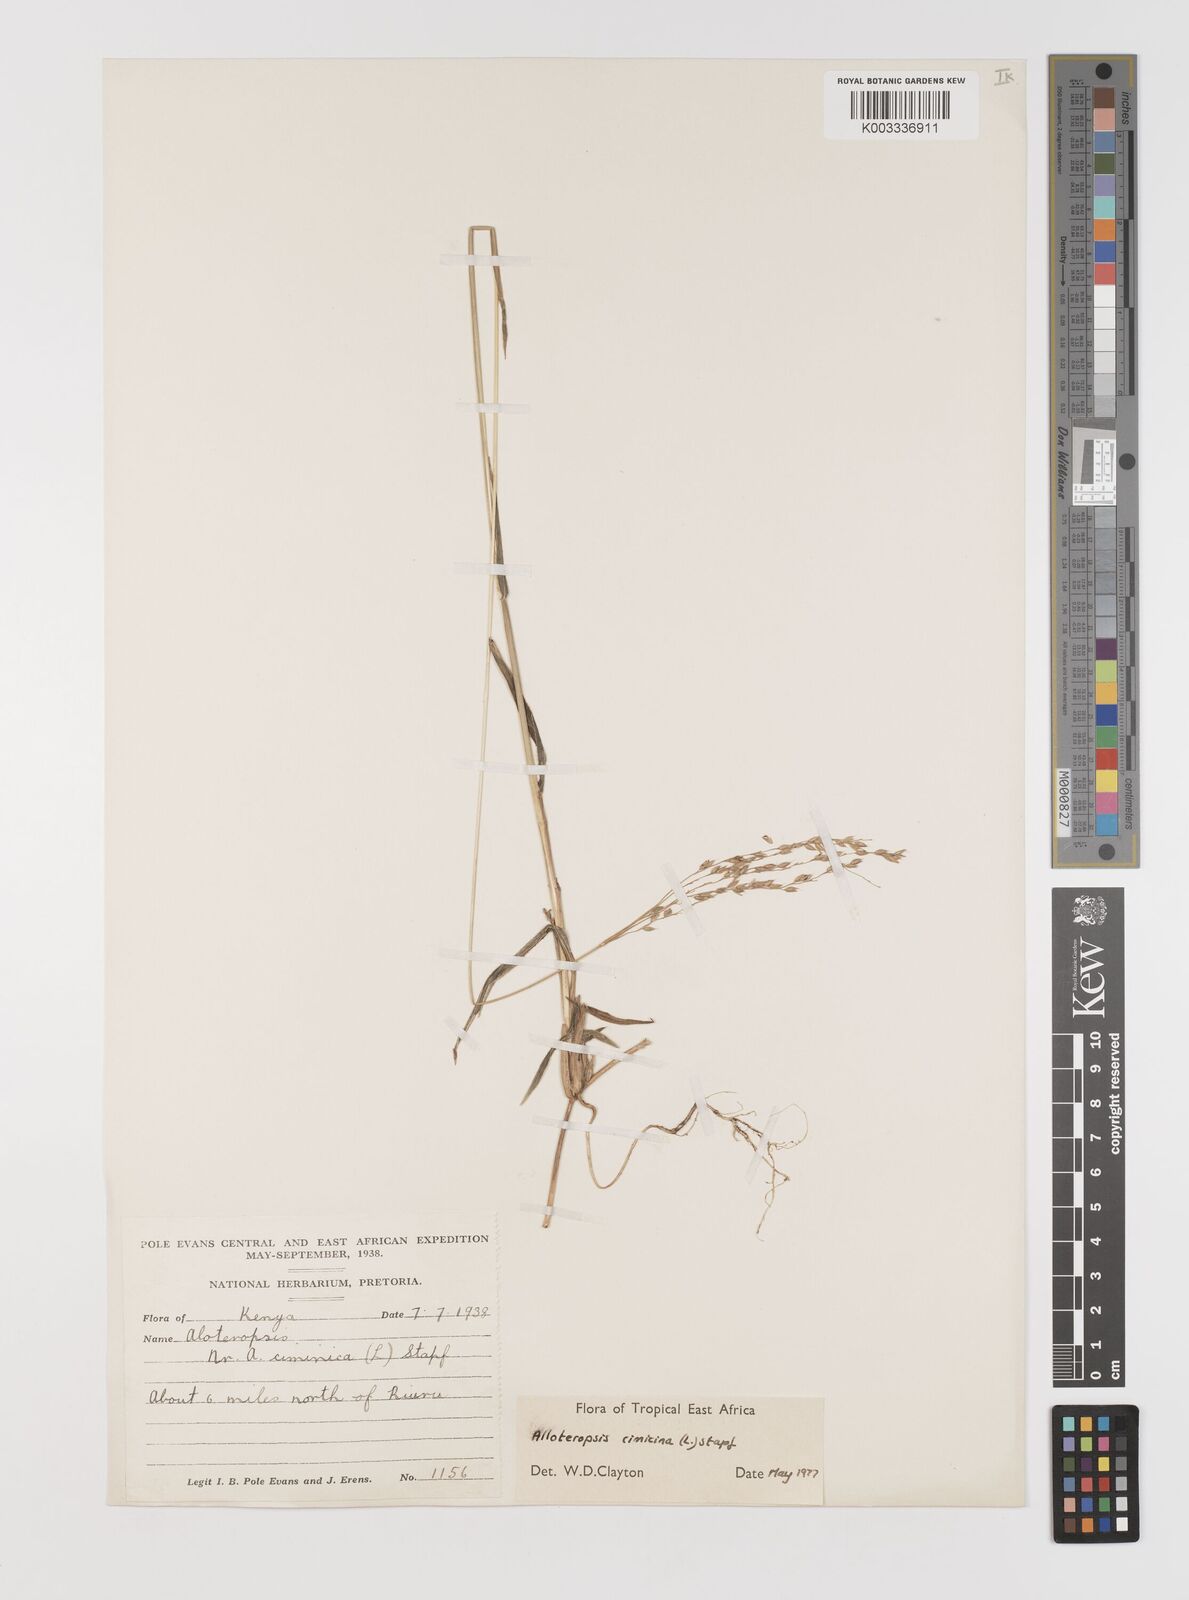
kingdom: Plantae
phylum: Tracheophyta
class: Liliopsida
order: Poales
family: Poaceae
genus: Alloteropsis
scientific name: Alloteropsis cimicina
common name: Summergrass
